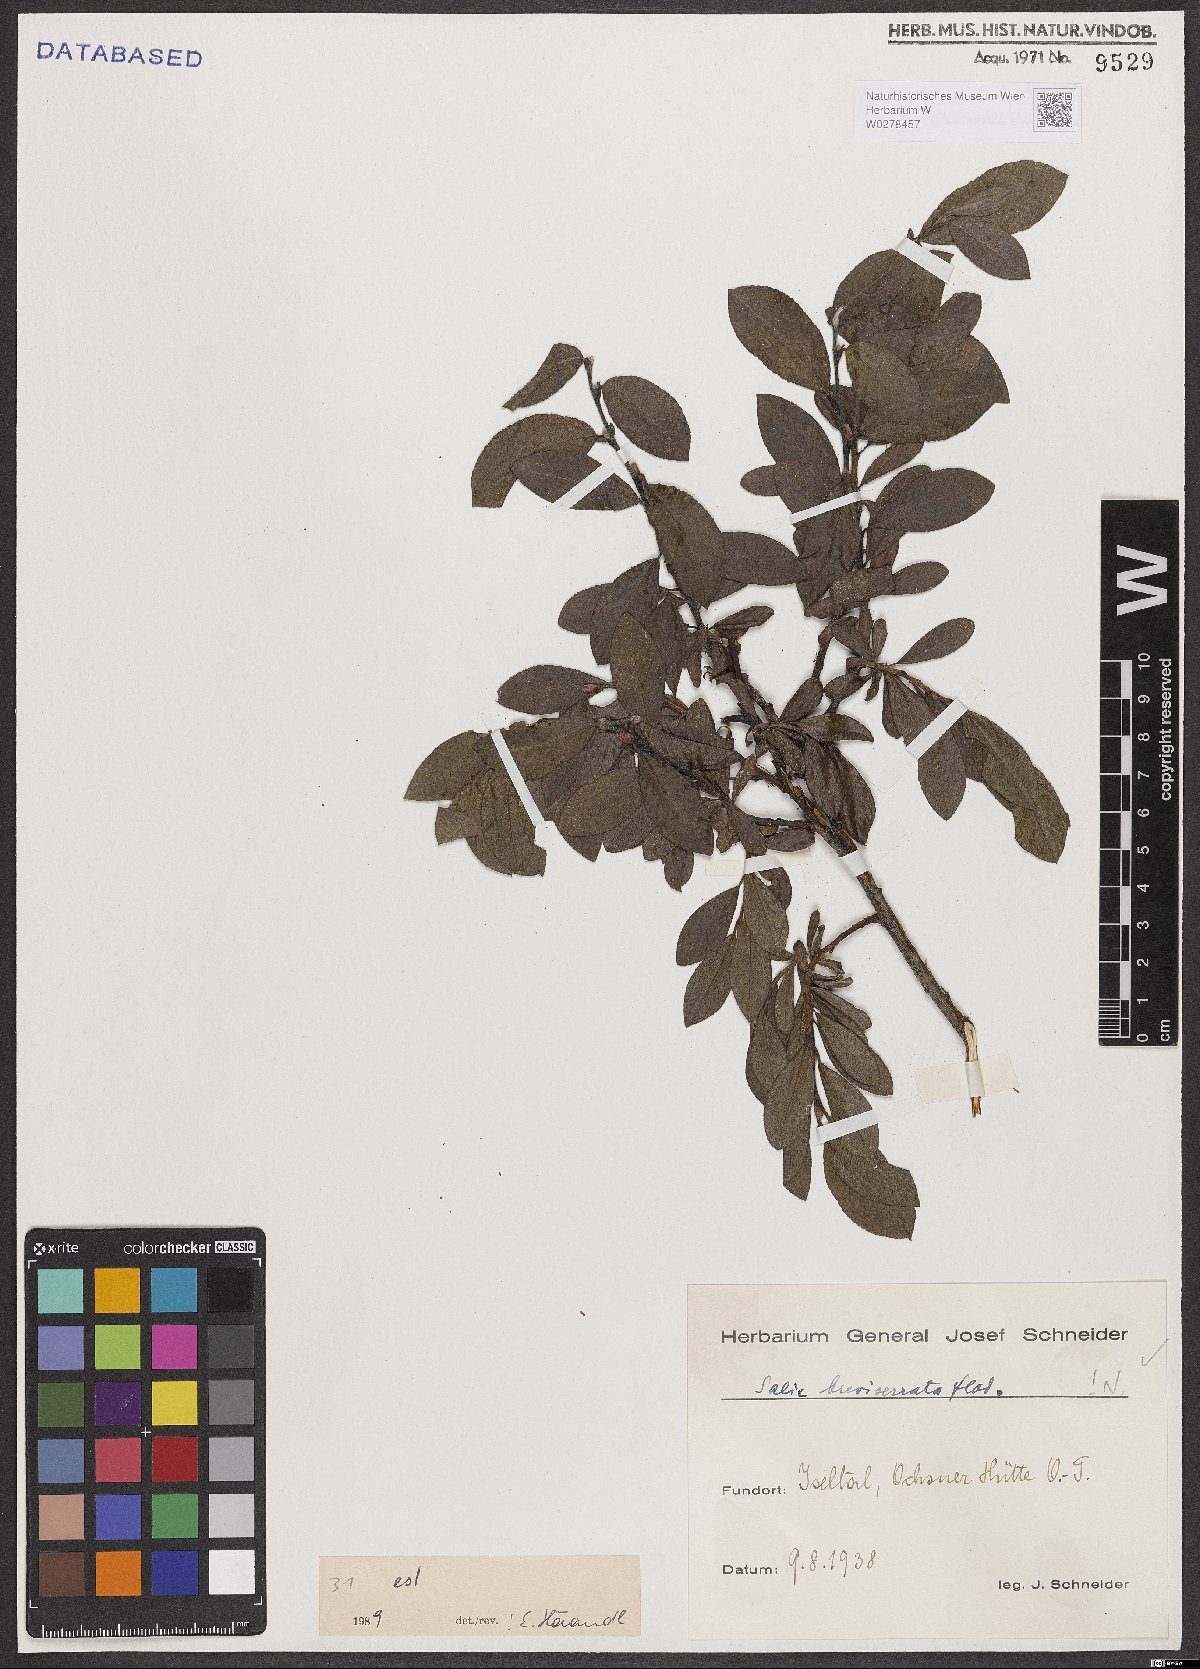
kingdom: Plantae
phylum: Tracheophyta
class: Magnoliopsida
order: Malpighiales
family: Salicaceae
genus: Salix
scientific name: Salix breviserrata
